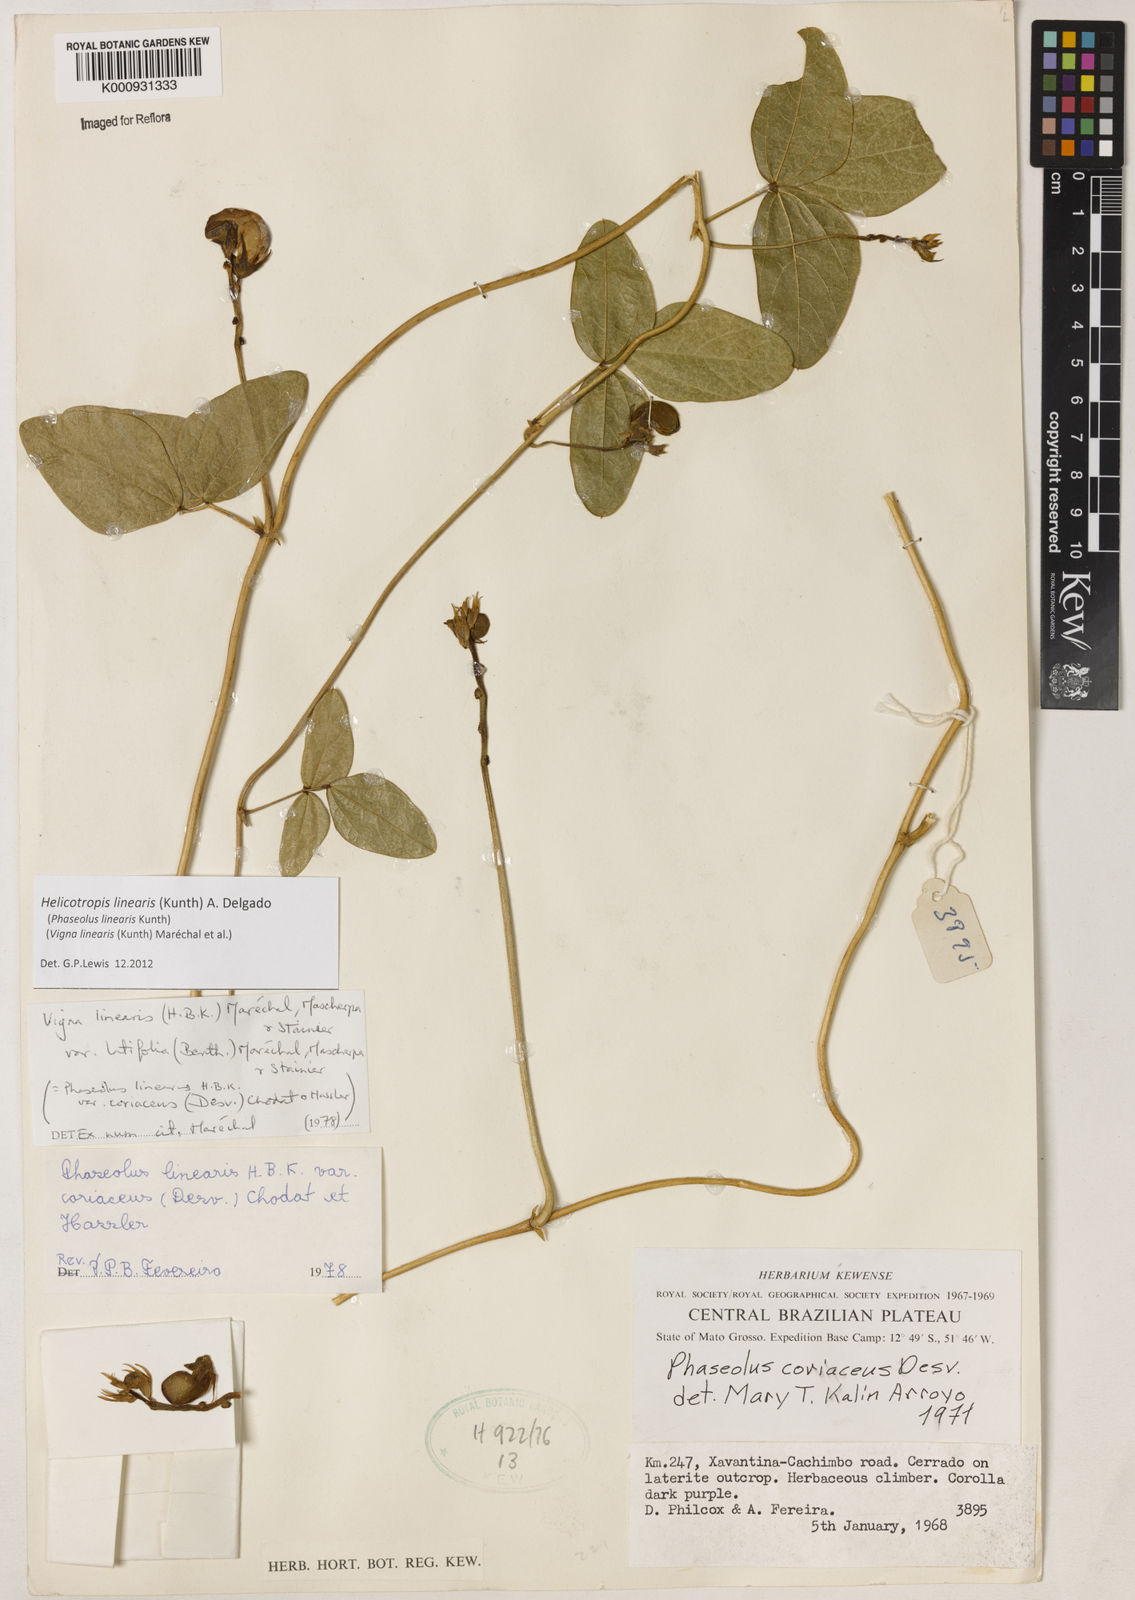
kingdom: Plantae
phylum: Tracheophyta
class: Magnoliopsida
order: Fabales
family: Fabaceae
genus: Helicotropis
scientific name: Helicotropis linearis
